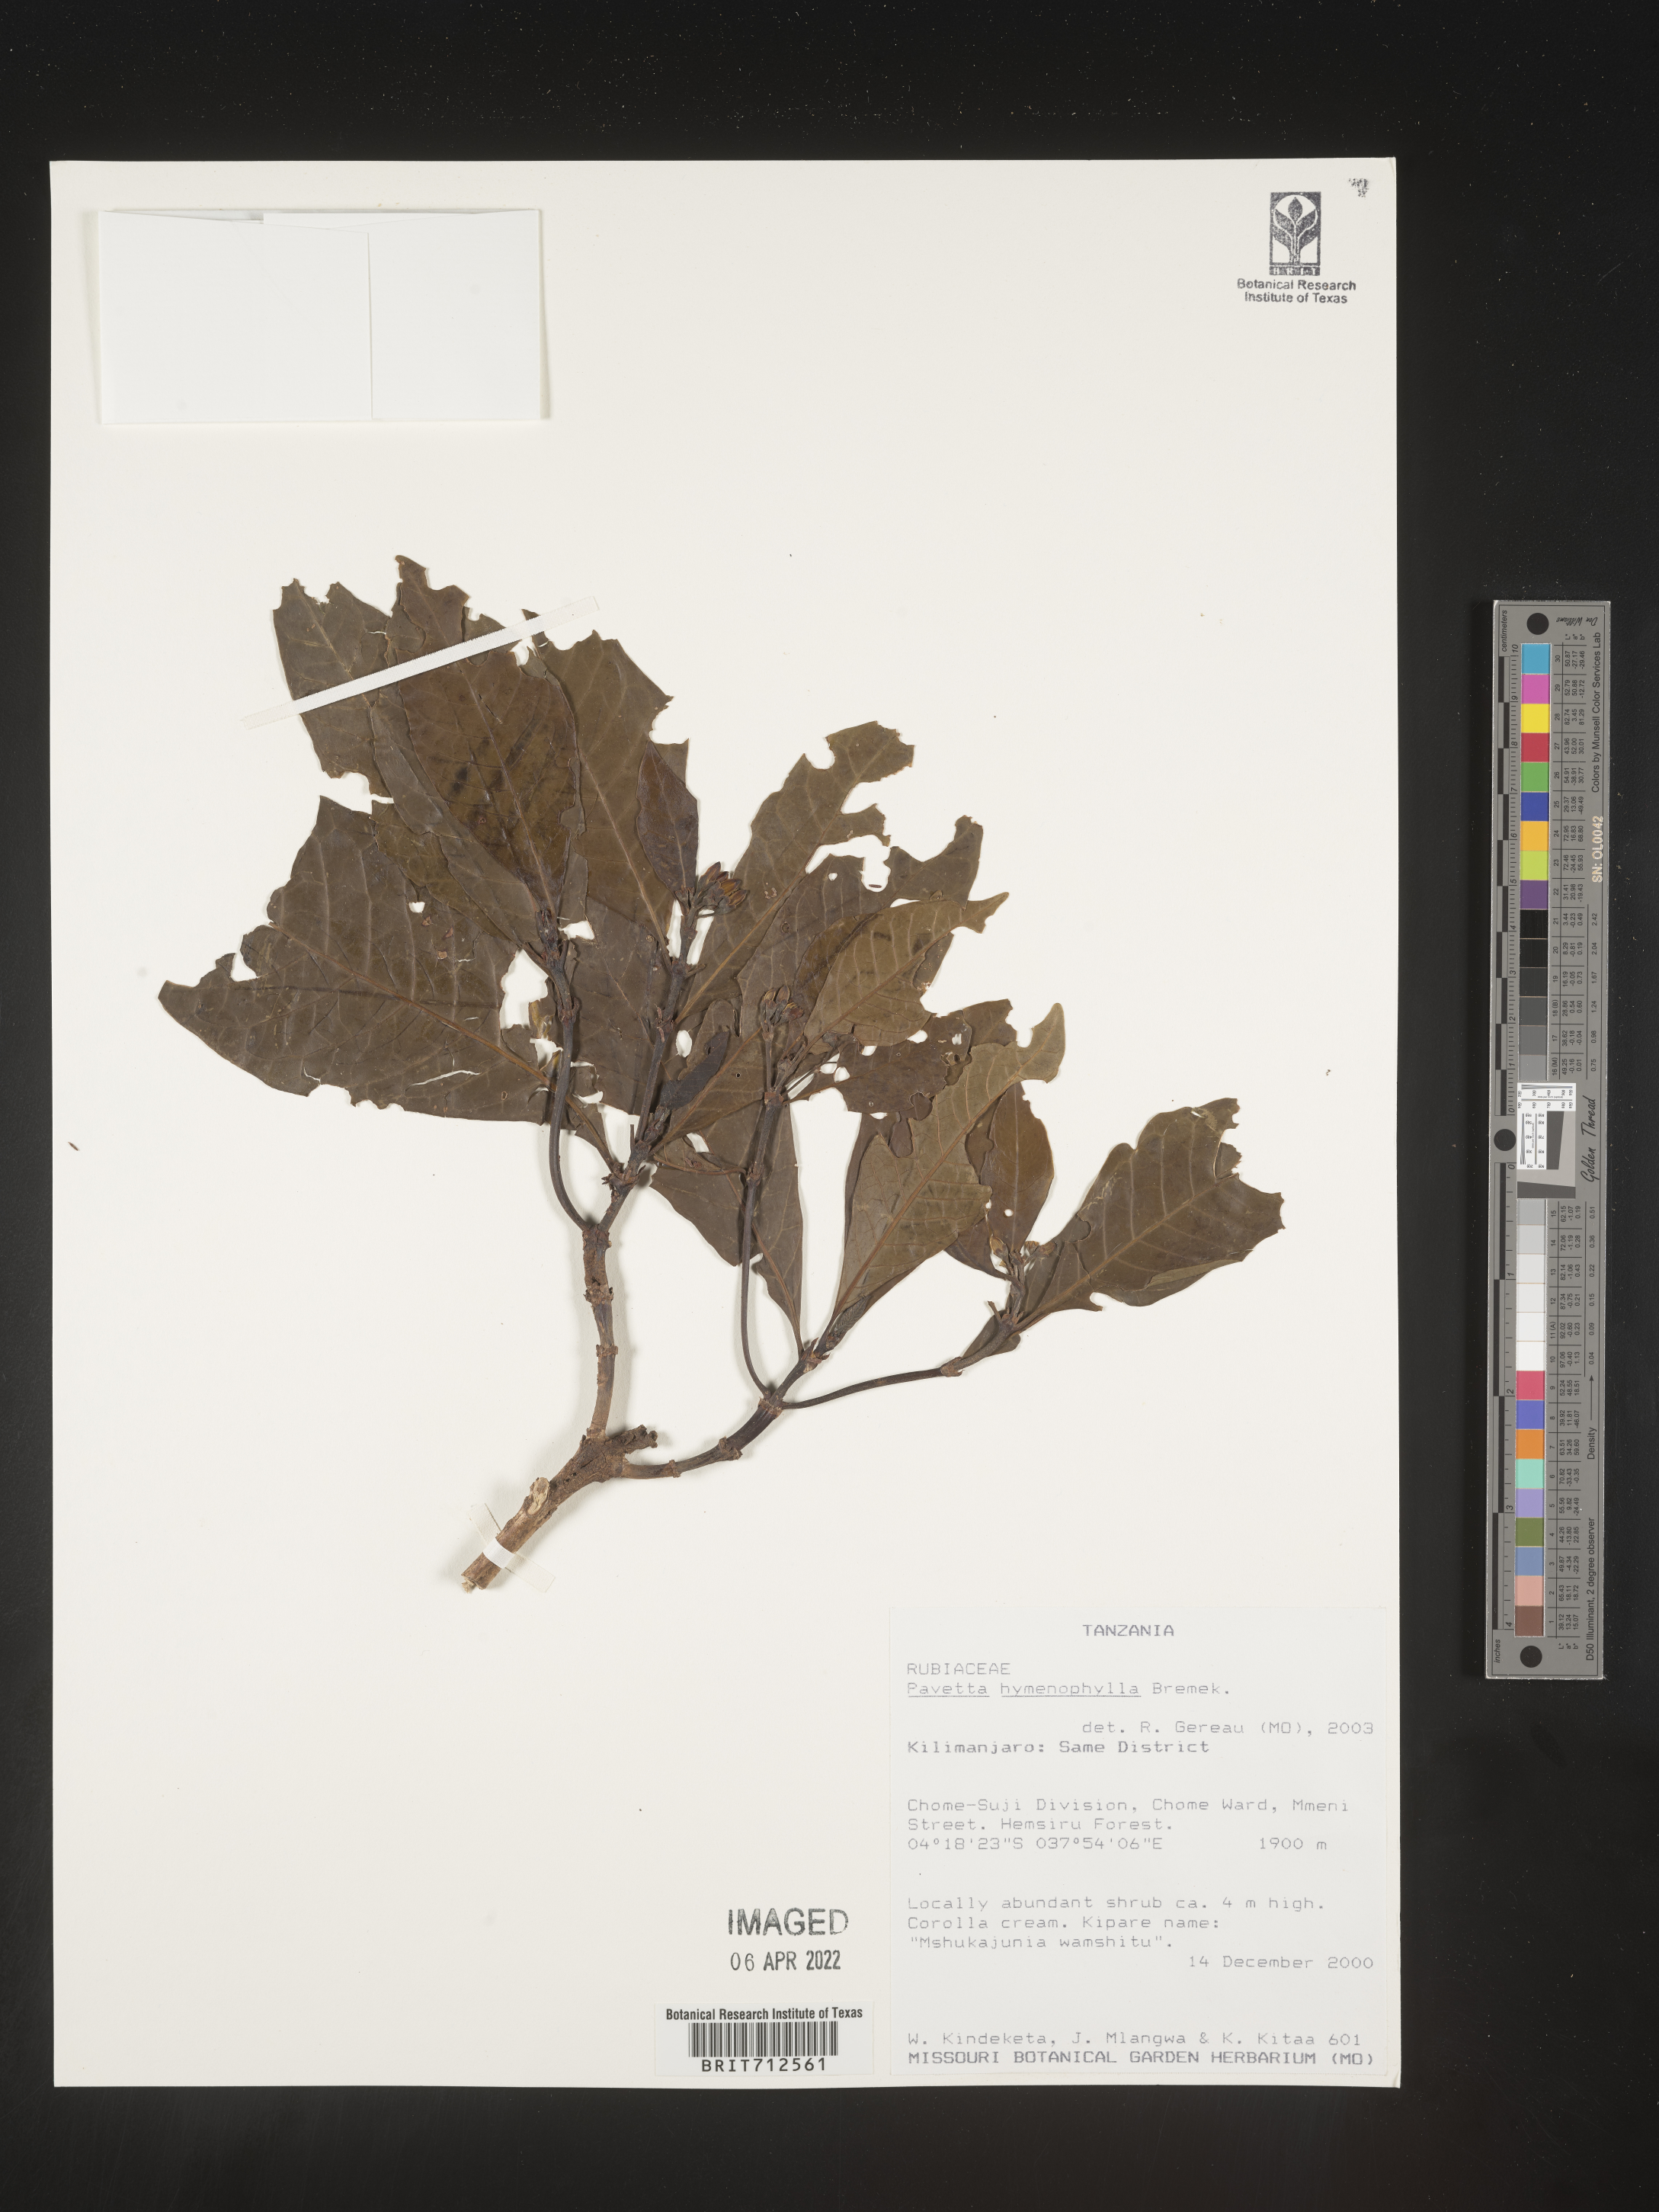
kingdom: Plantae
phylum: Tracheophyta
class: Magnoliopsida
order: Gentianales
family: Rubiaceae
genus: Pavetta
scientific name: Pavetta
